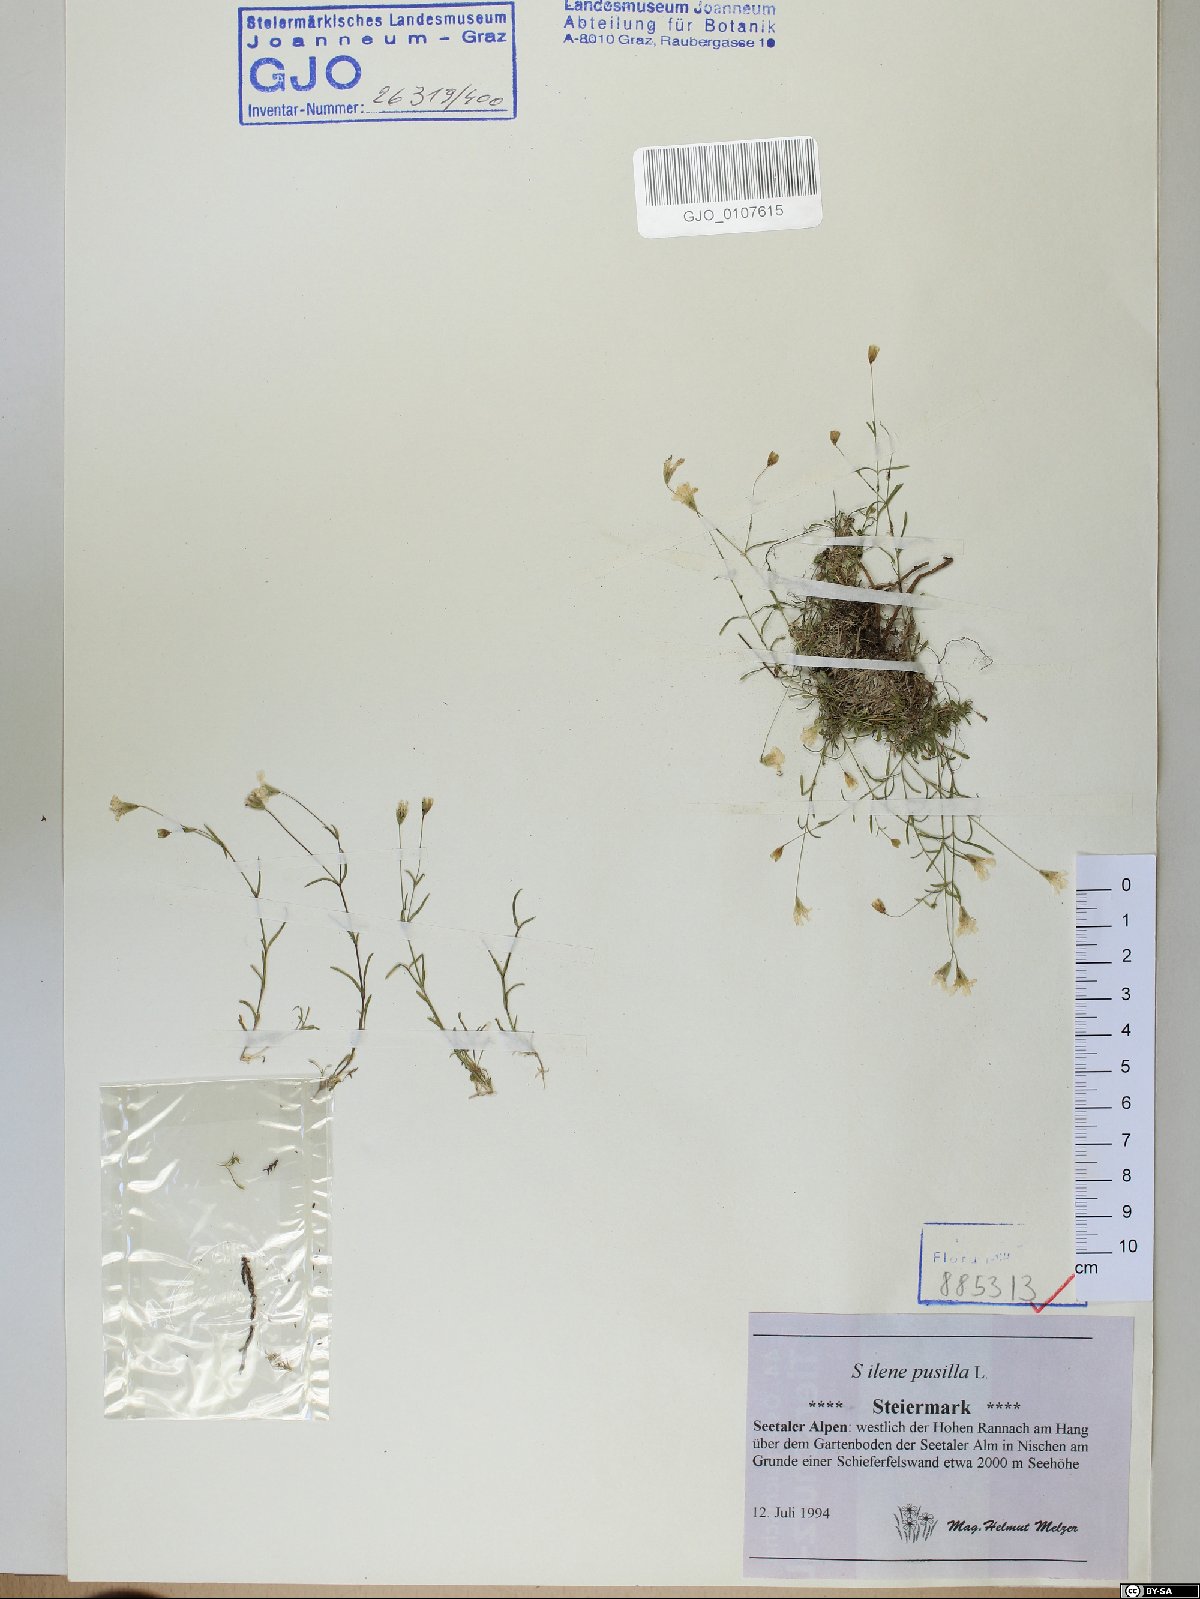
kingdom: Plantae
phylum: Tracheophyta
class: Magnoliopsida
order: Caryophyllales
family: Caryophyllaceae
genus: Heliosperma
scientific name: Heliosperma pusillum
